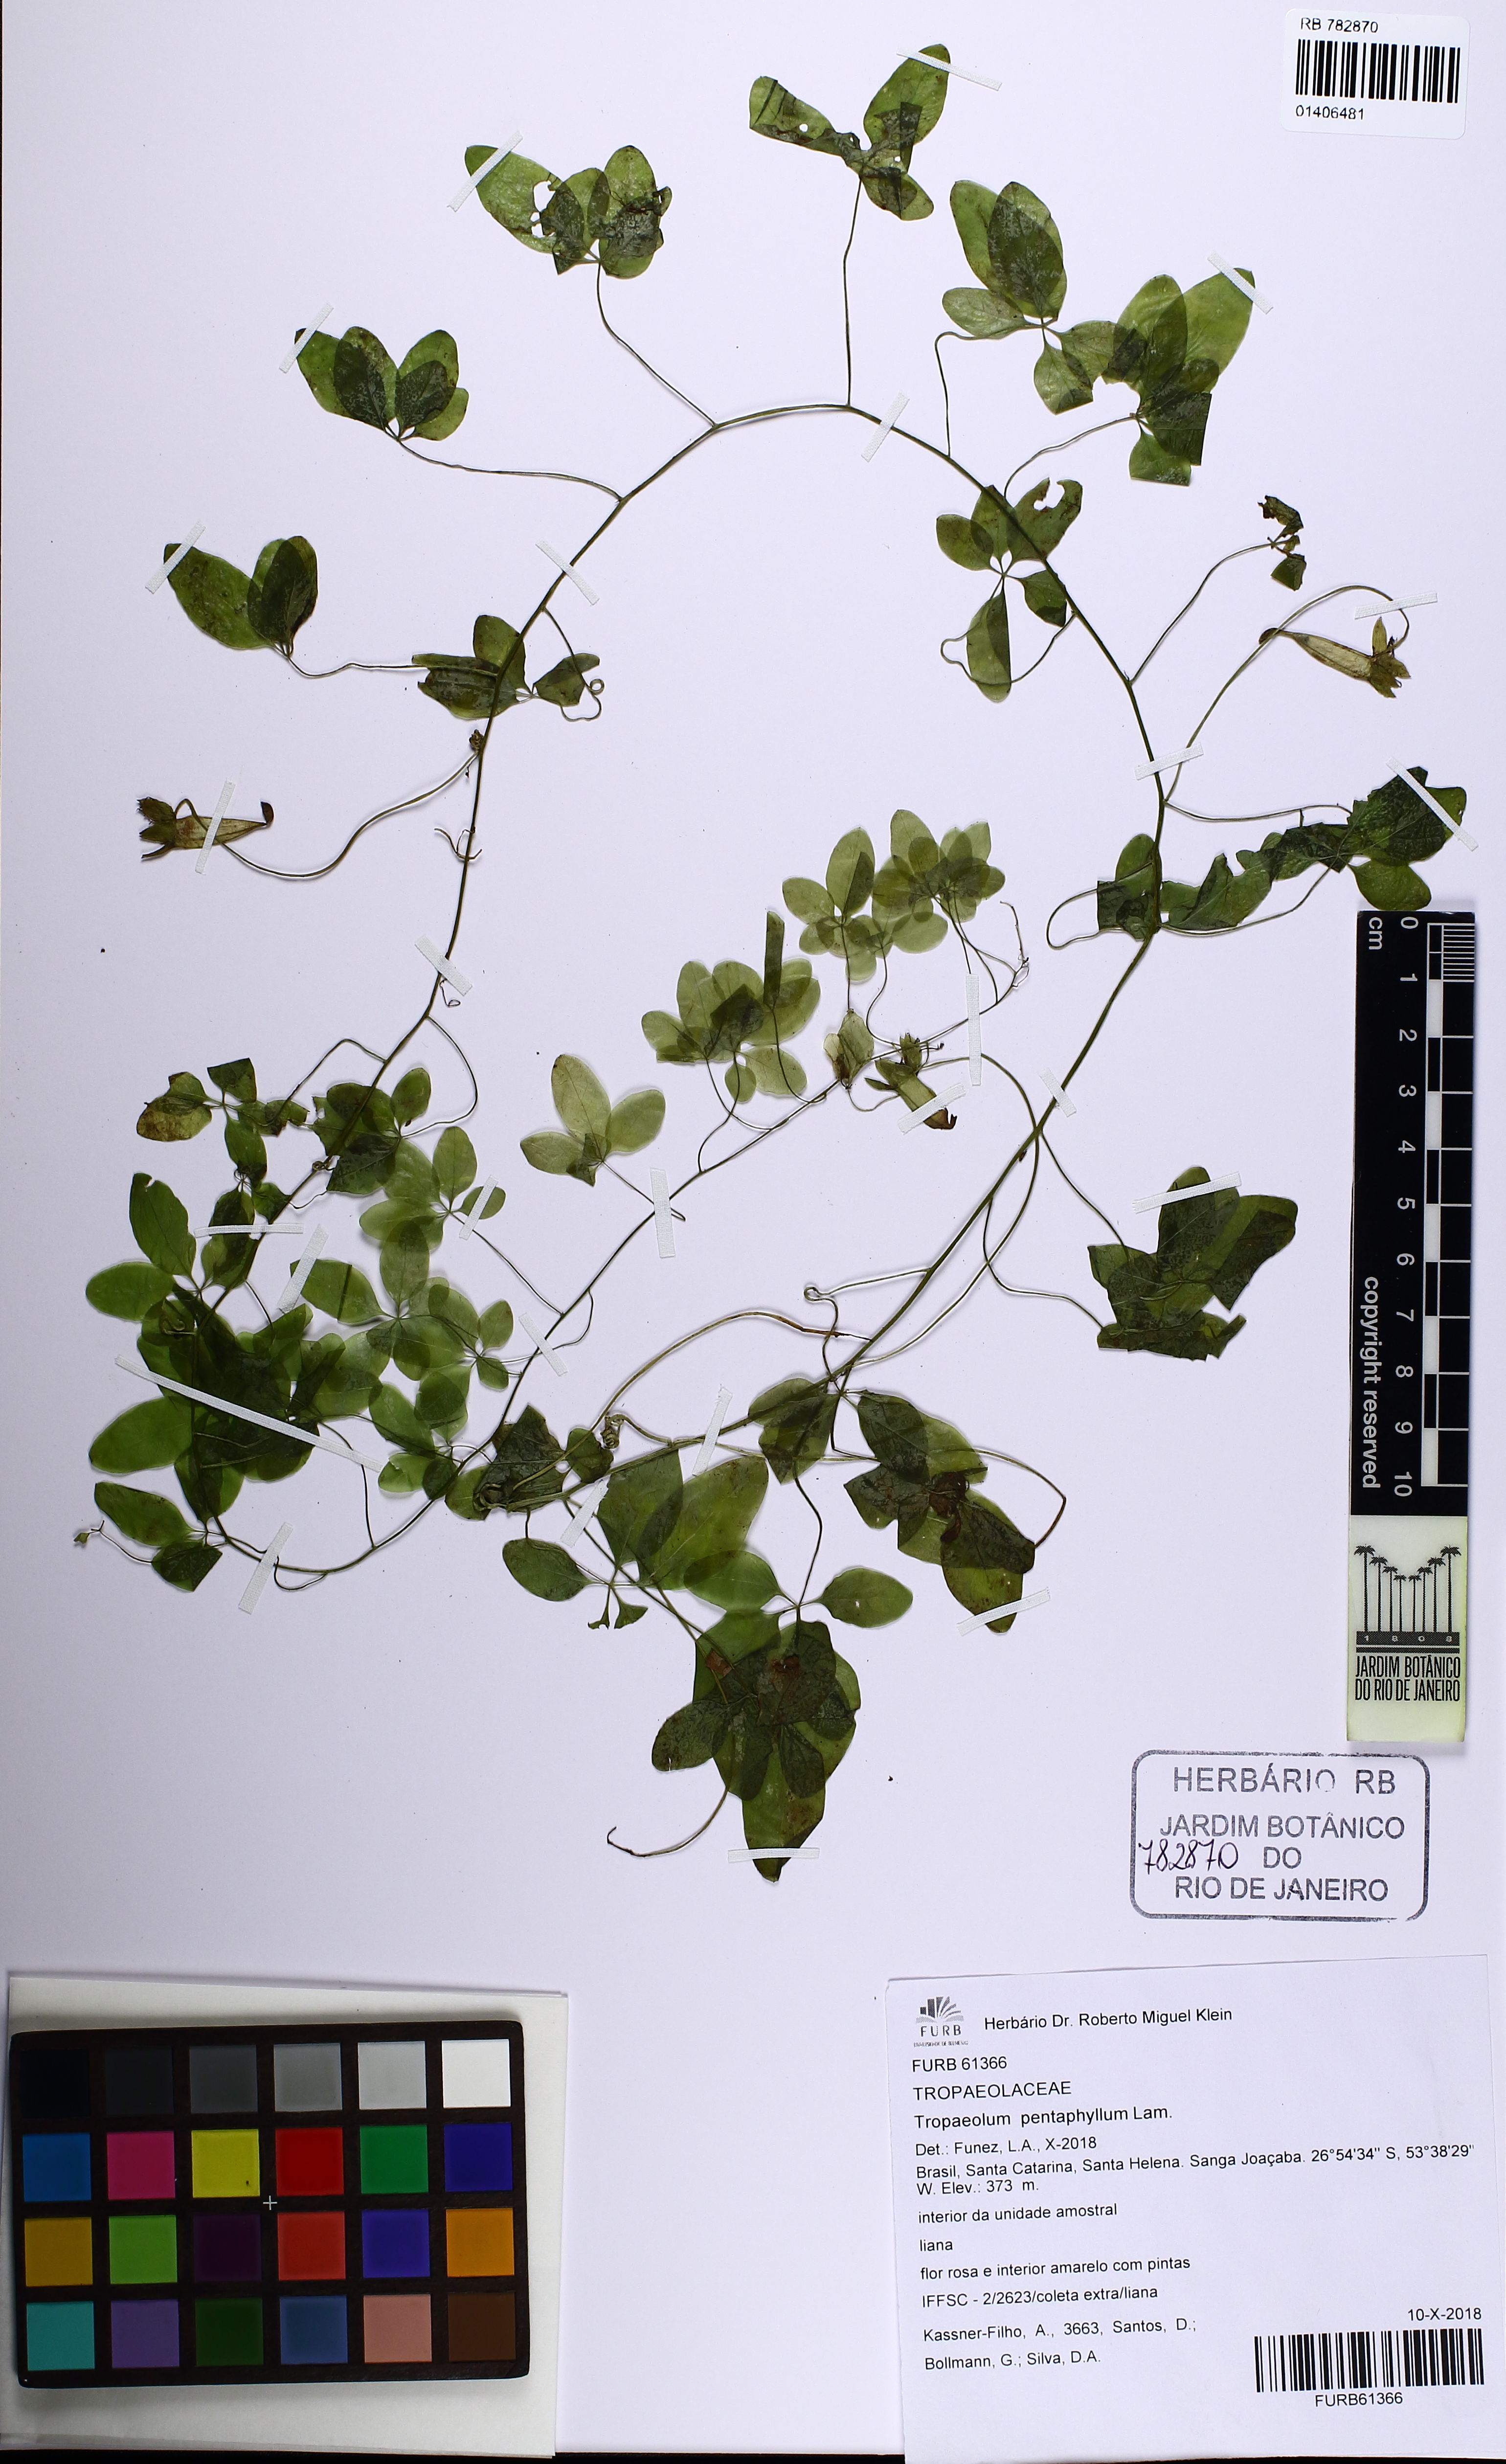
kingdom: Plantae
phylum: Tracheophyta
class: Magnoliopsida
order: Brassicales
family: Tropaeolaceae
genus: Tropaeolum
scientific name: Tropaeolum pentaphyllum
